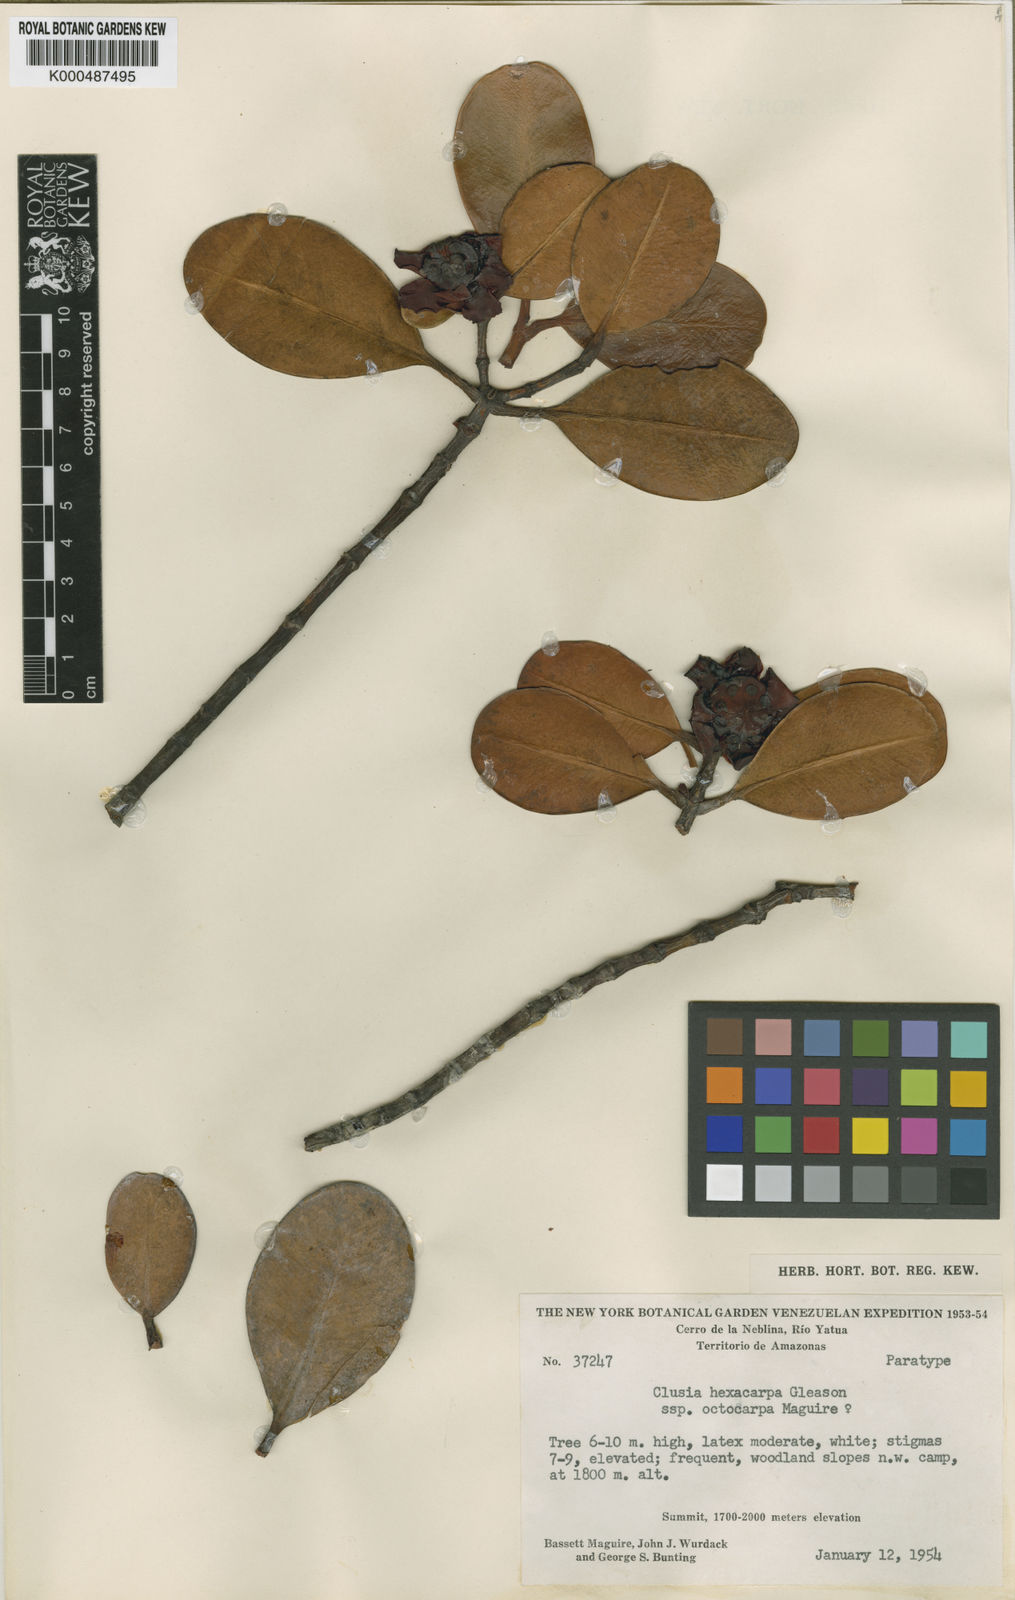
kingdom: Plantae
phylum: Tracheophyta
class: Magnoliopsida
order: Malpighiales
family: Clusiaceae
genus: Clusia
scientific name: Clusia hexacarpa
